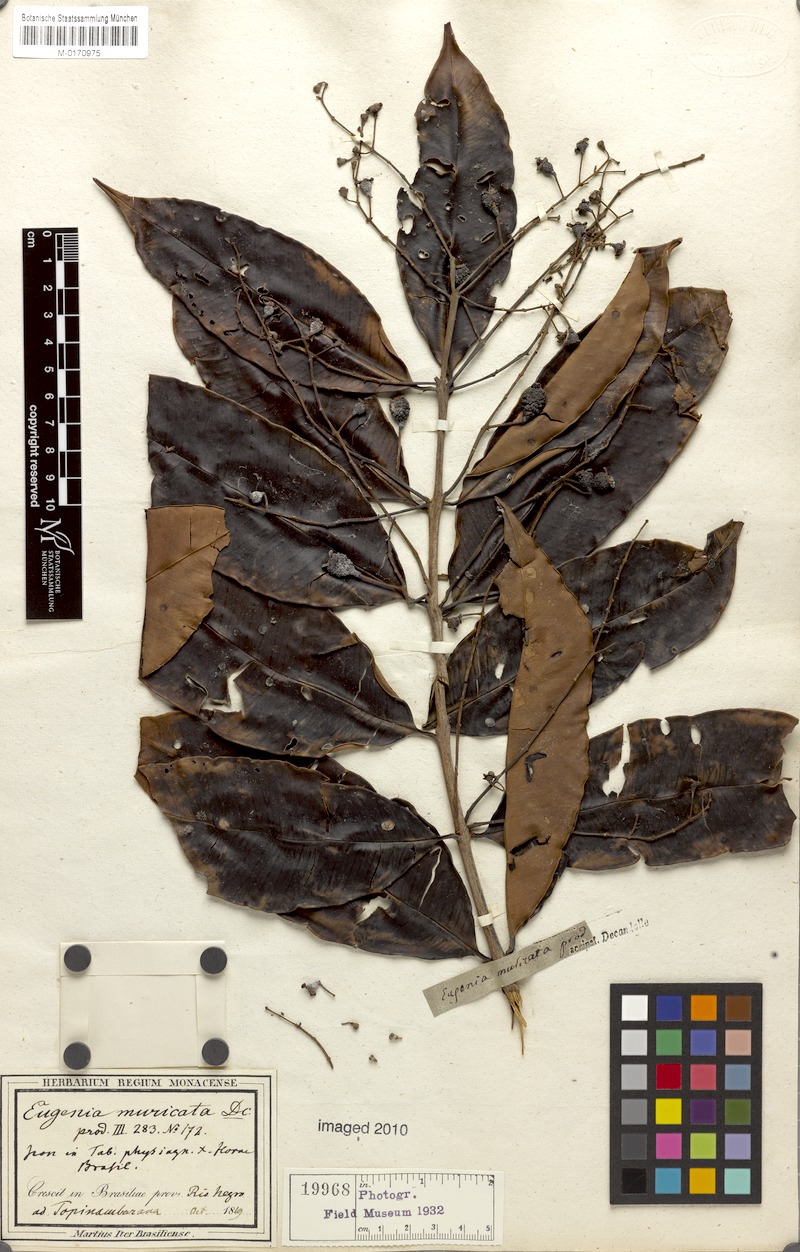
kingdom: Plantae
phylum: Tracheophyta
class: Magnoliopsida
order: Myrtales
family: Myrtaceae
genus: Eugenia
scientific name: Eugenia patens
